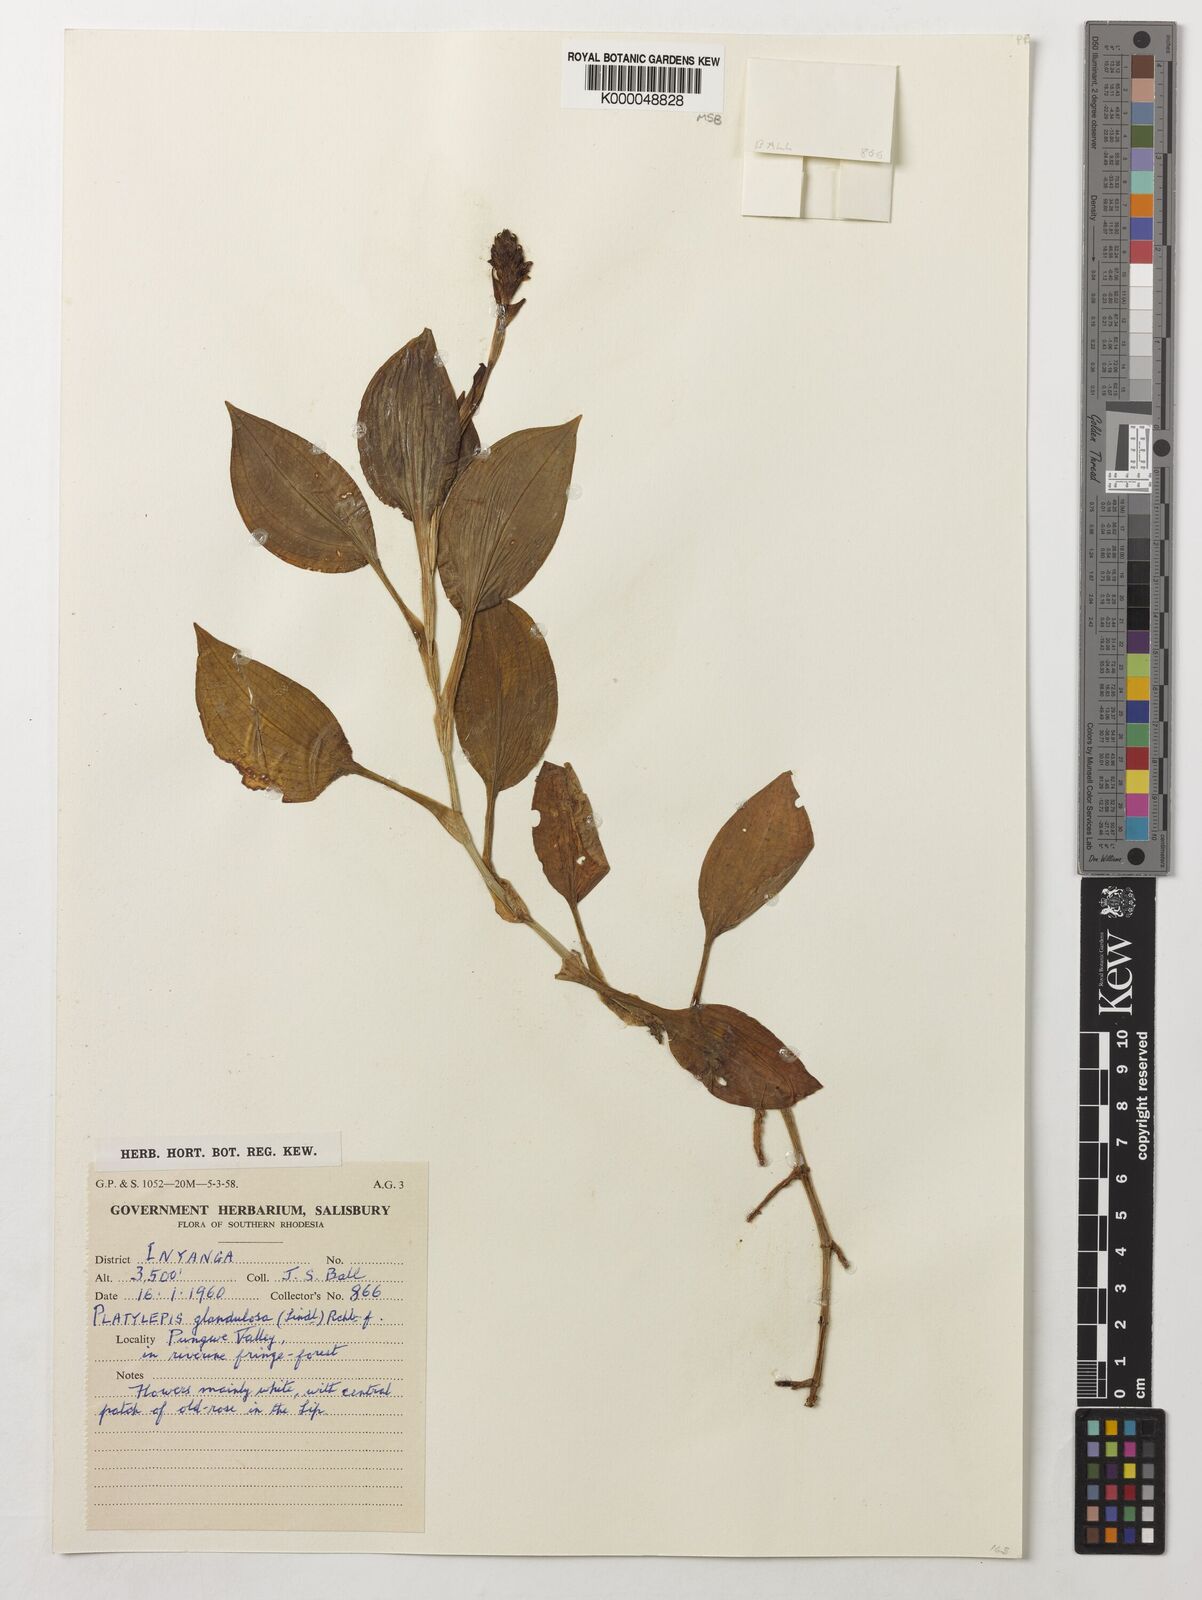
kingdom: Plantae
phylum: Tracheophyta
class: Liliopsida
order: Asparagales
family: Orchidaceae
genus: Platylepis
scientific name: Platylepis glandulosa
